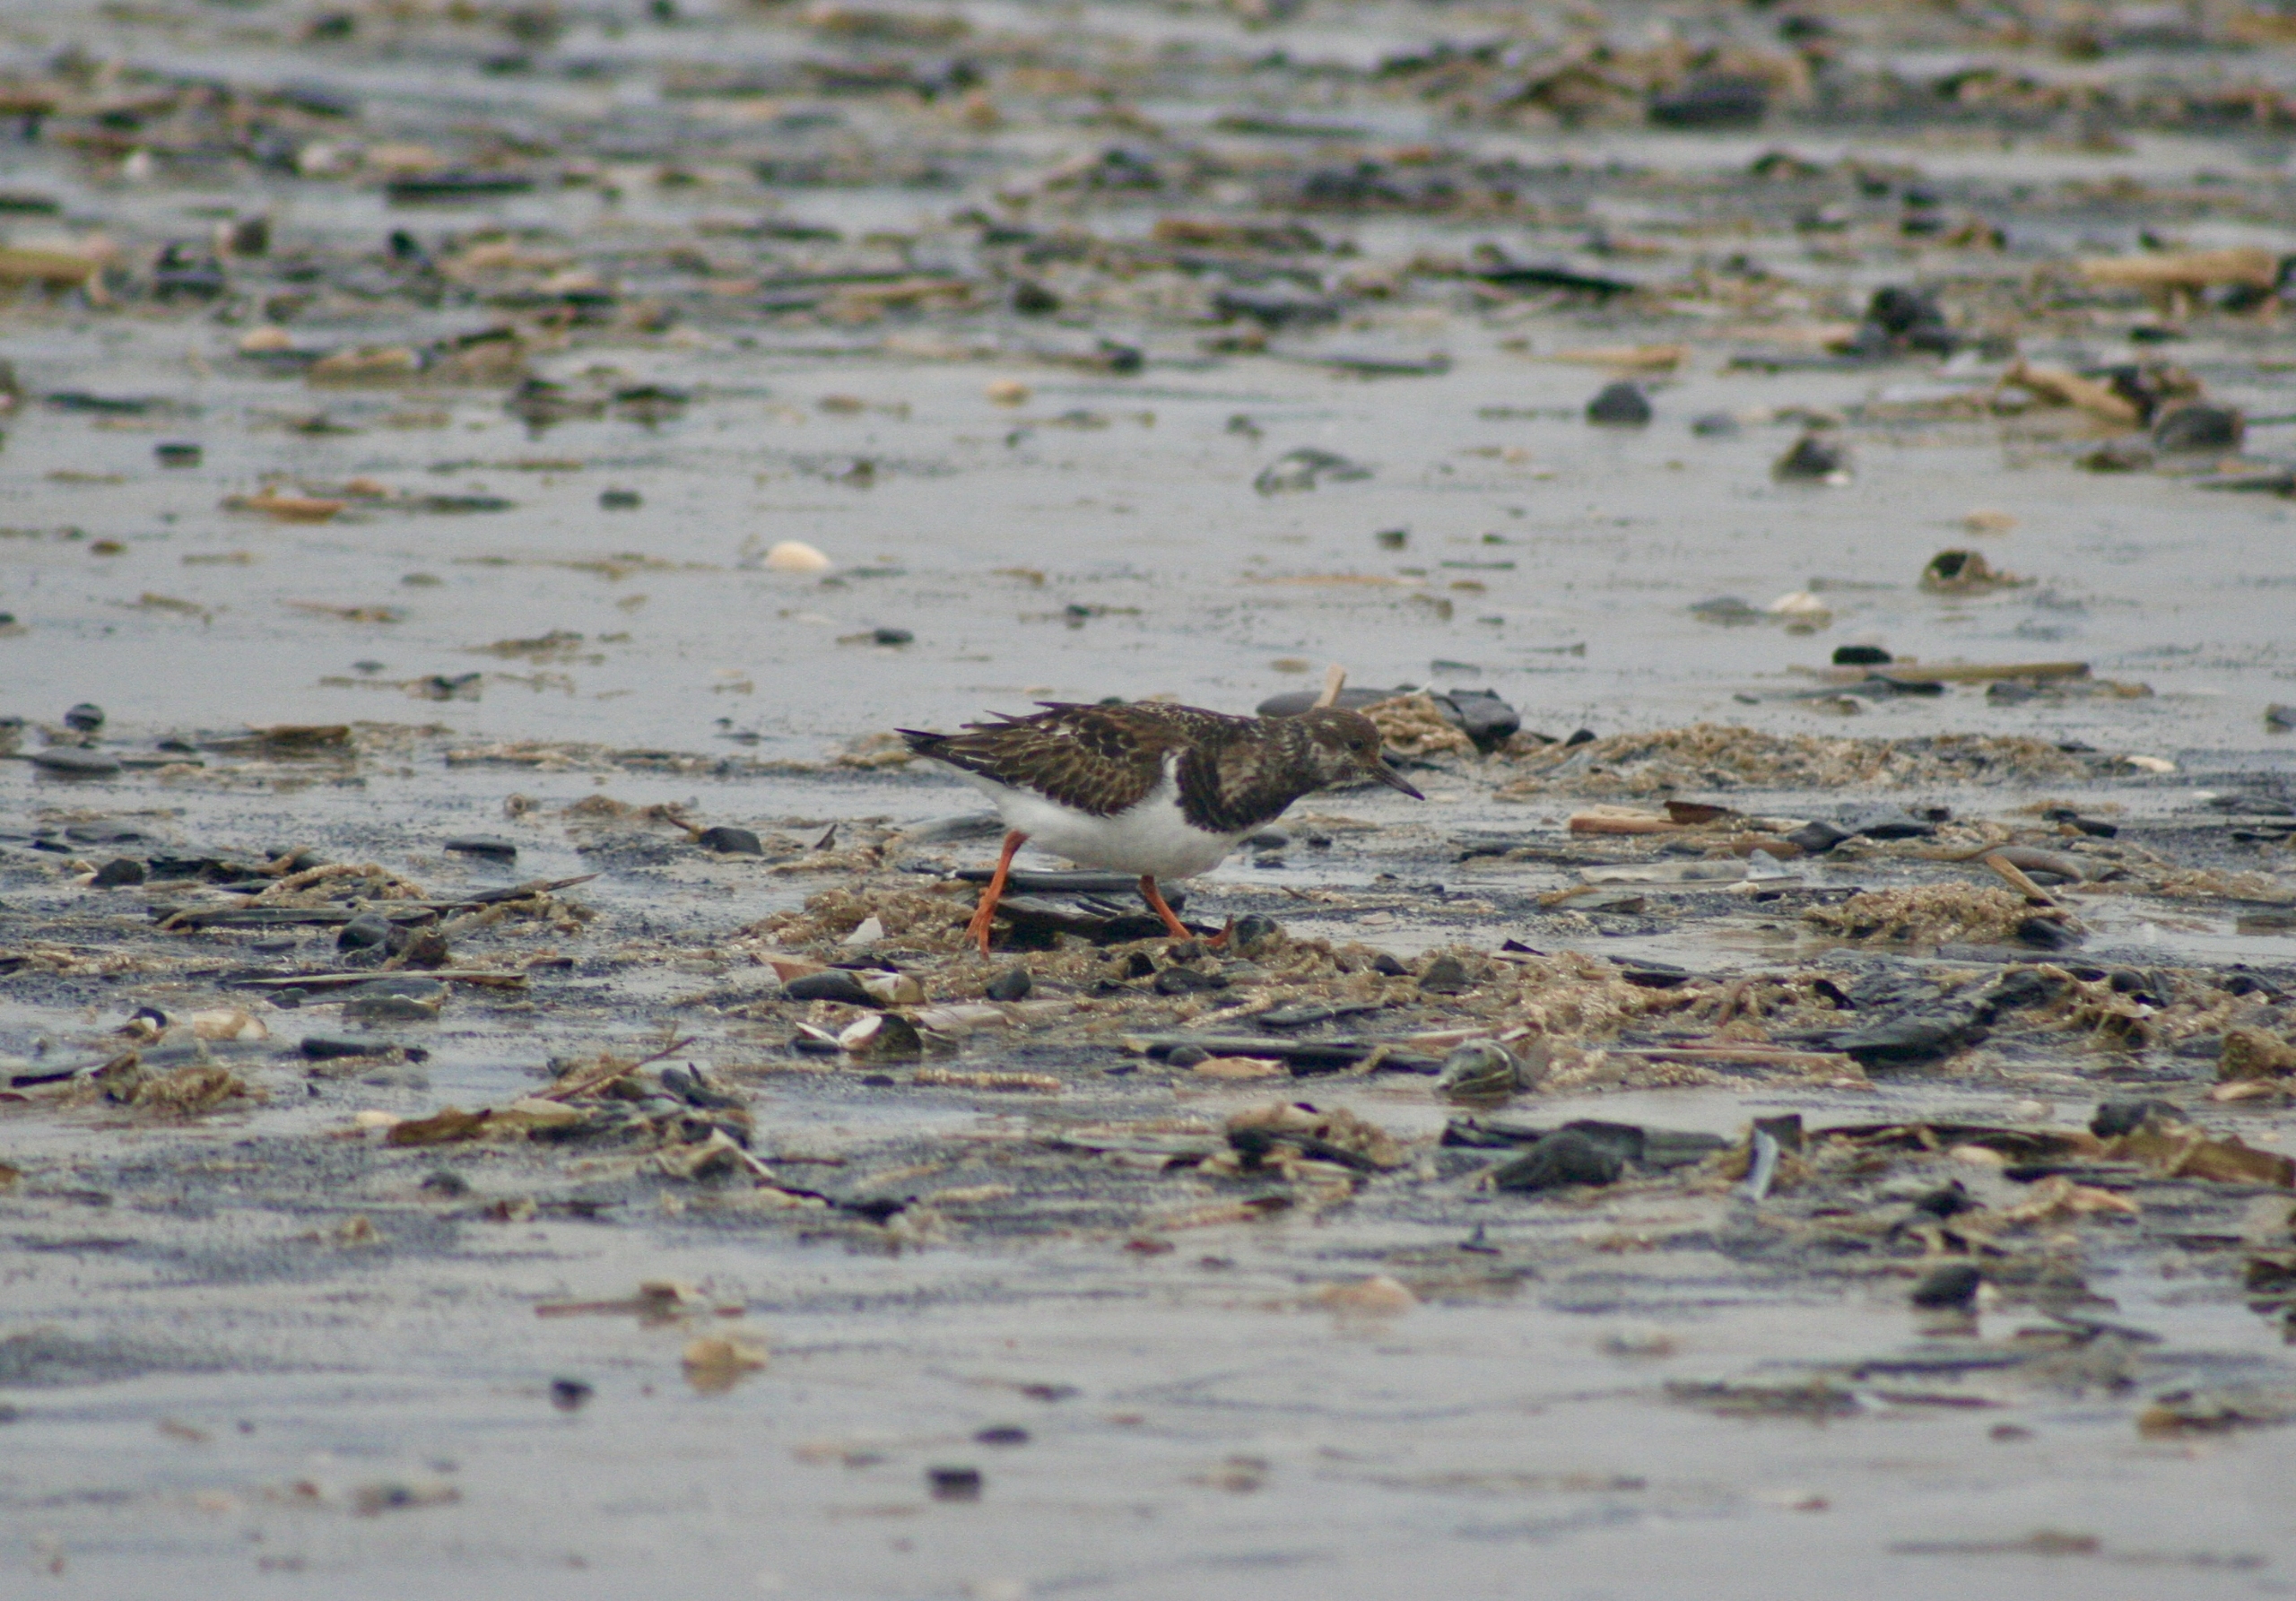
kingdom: Animalia
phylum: Chordata
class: Aves
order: Charadriiformes
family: Scolopacidae
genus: Arenaria
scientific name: Arenaria interpres
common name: Stenvender
